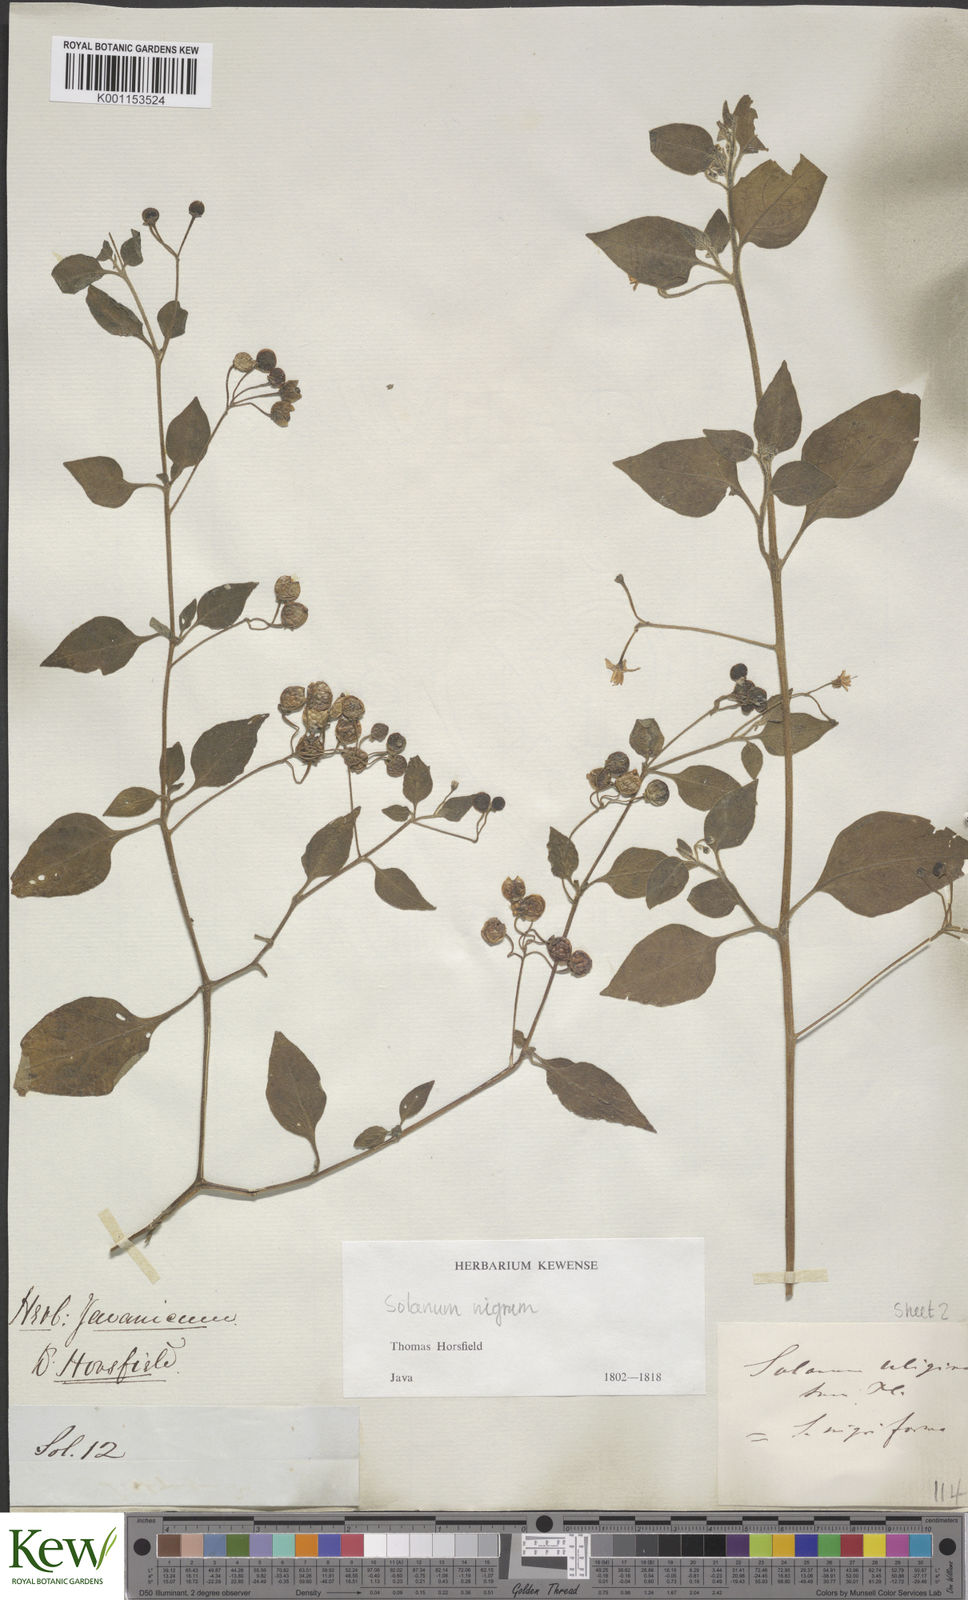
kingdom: Plantae
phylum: Tracheophyta
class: Magnoliopsida
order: Solanales
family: Solanaceae
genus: Solanum
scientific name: Solanum nigrum
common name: Black nightshade
